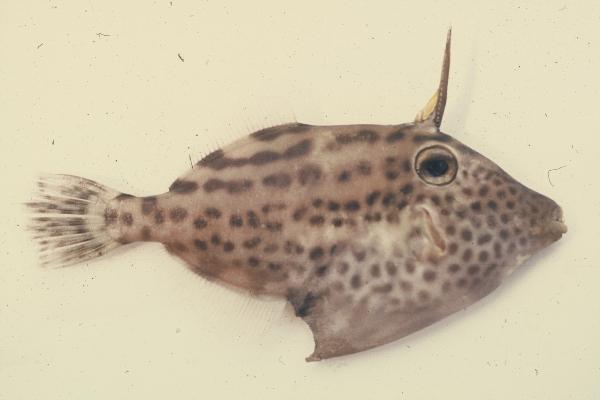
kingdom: Animalia
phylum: Chordata
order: Tetraodontiformes
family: Monacanthidae
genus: Thamnaconus
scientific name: Thamnaconus fajardoi
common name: Spotted filefish
